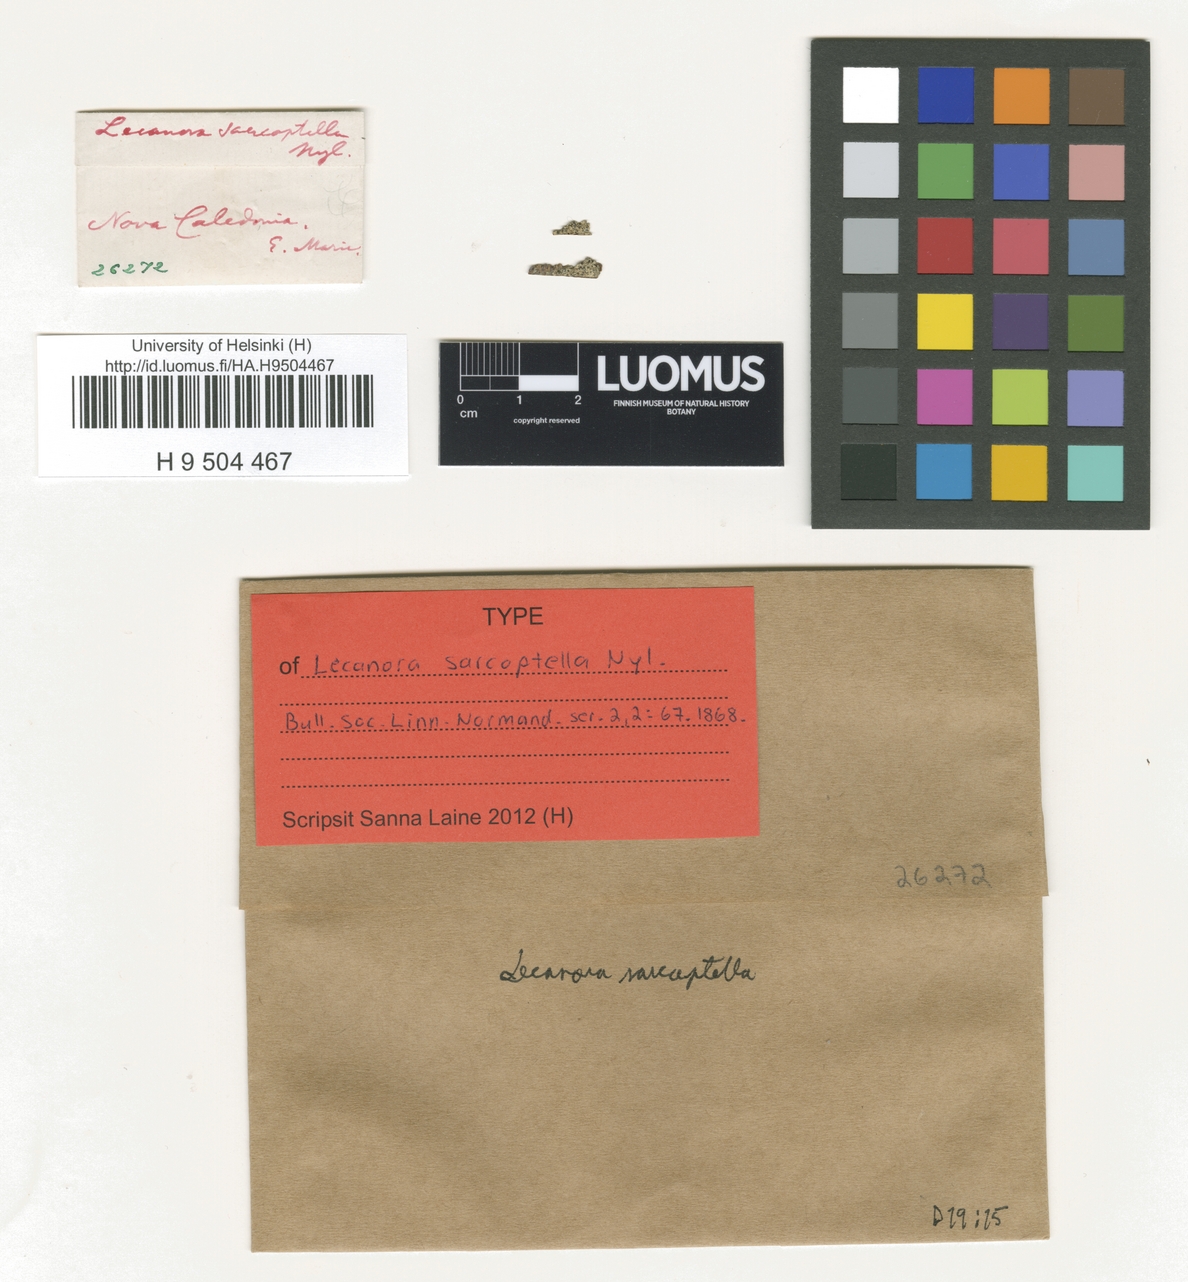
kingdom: Fungi
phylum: Ascomycota
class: Lecanoromycetes
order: Lecanorales
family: Lecanoraceae
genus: Lecanora
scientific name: Lecanora sarcoptella
